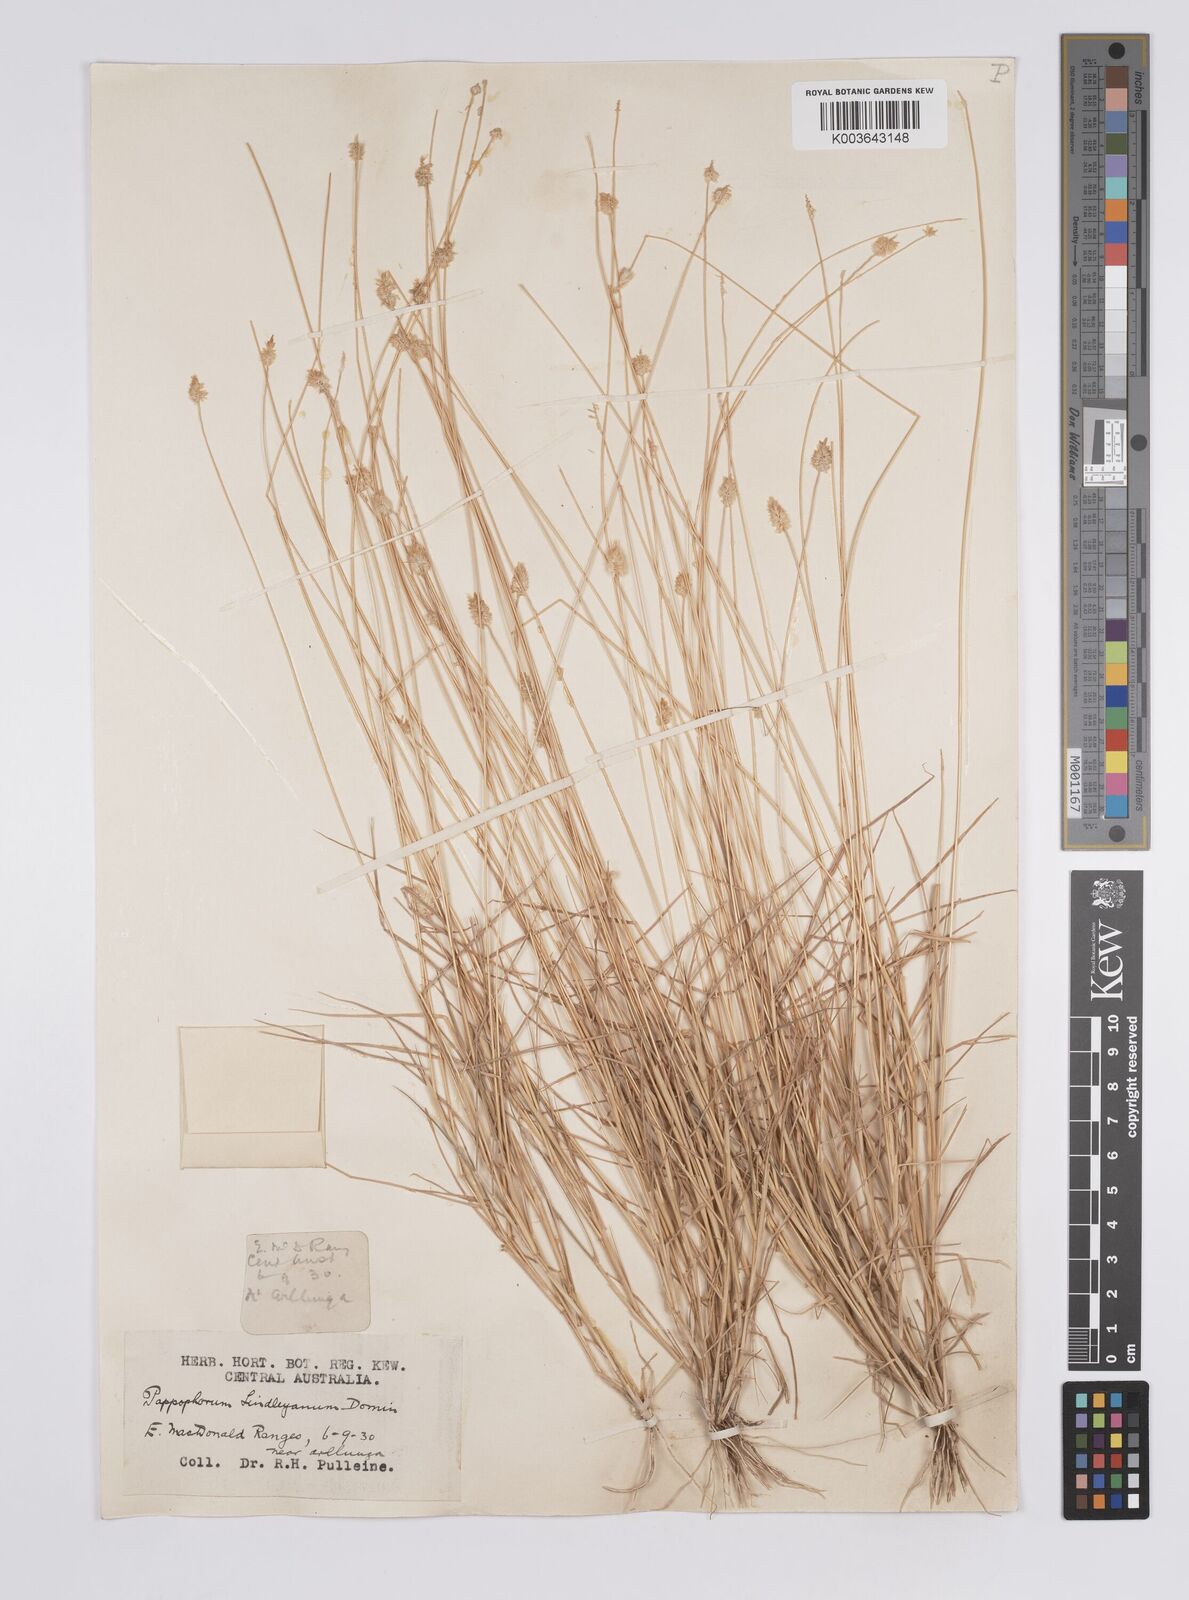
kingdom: Plantae
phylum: Tracheophyta
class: Liliopsida
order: Poales
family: Poaceae
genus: Enneapogon
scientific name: Enneapogon lindleyanus
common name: Conetop nineawn
